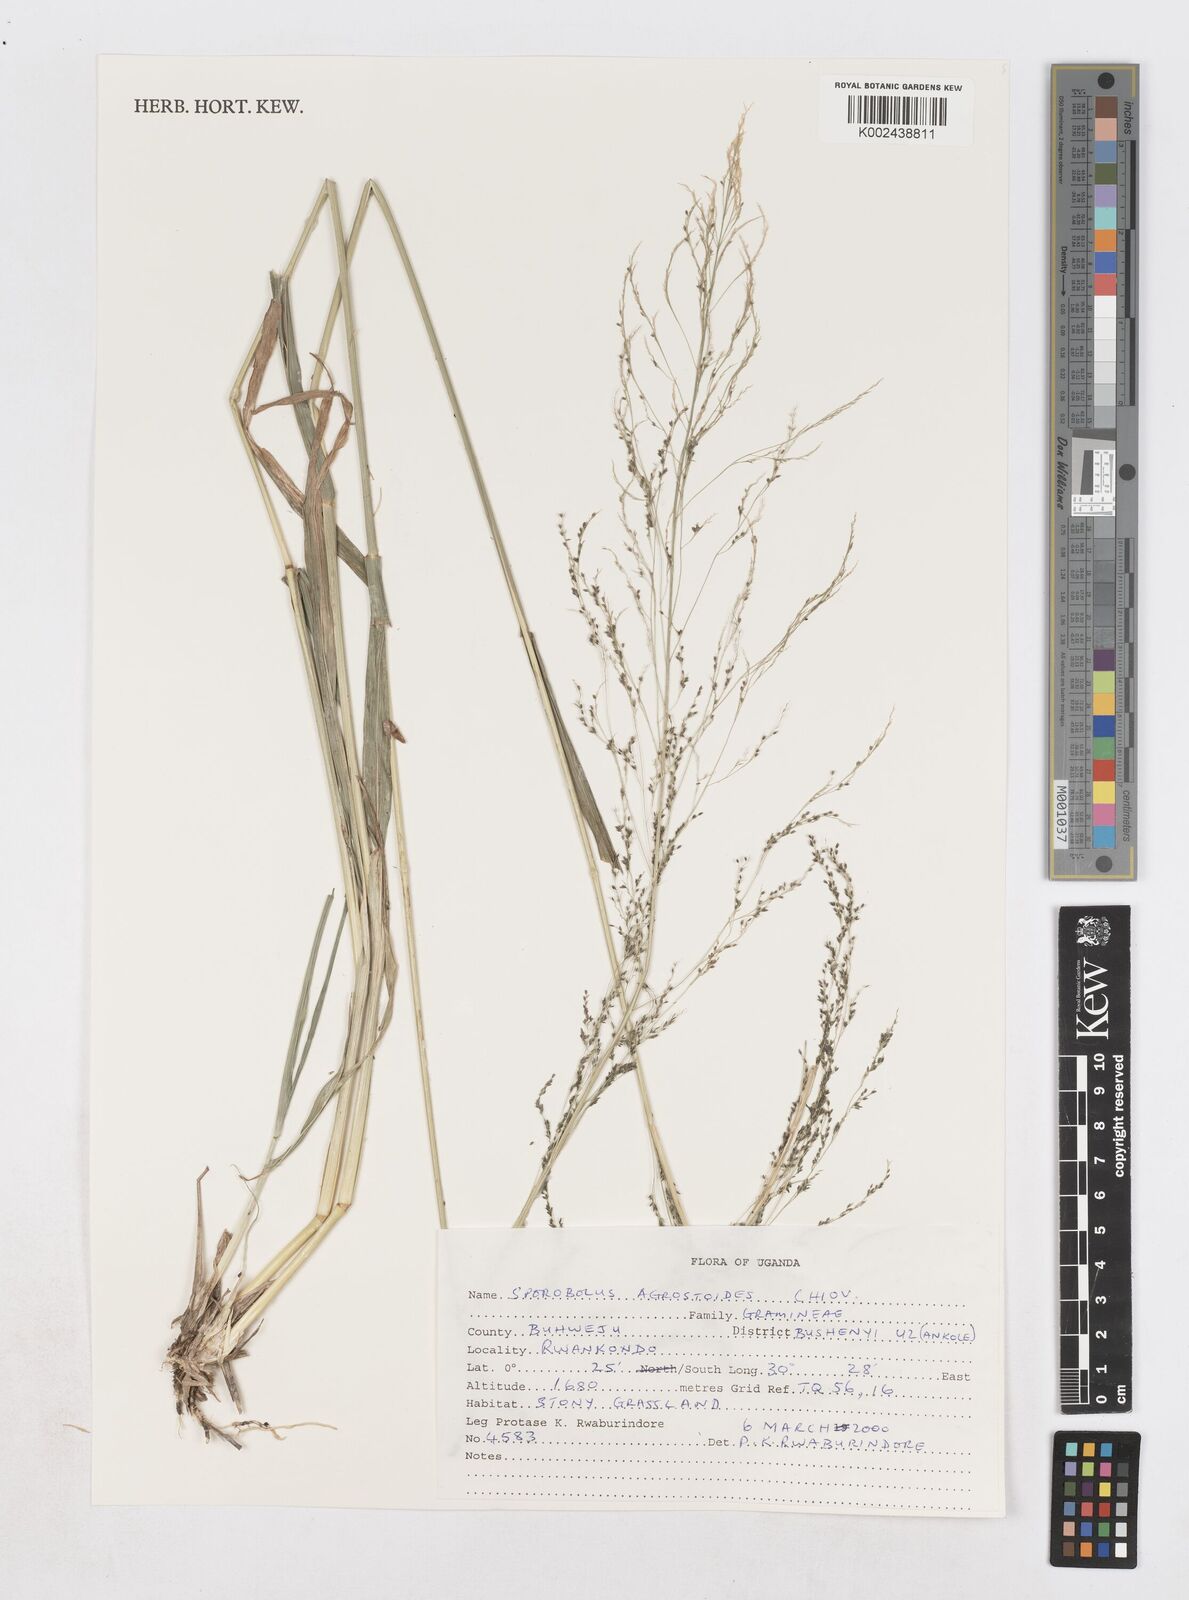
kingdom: Plantae
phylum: Tracheophyta
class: Liliopsida
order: Poales
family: Poaceae
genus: Sporobolus
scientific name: Sporobolus agrostoides
